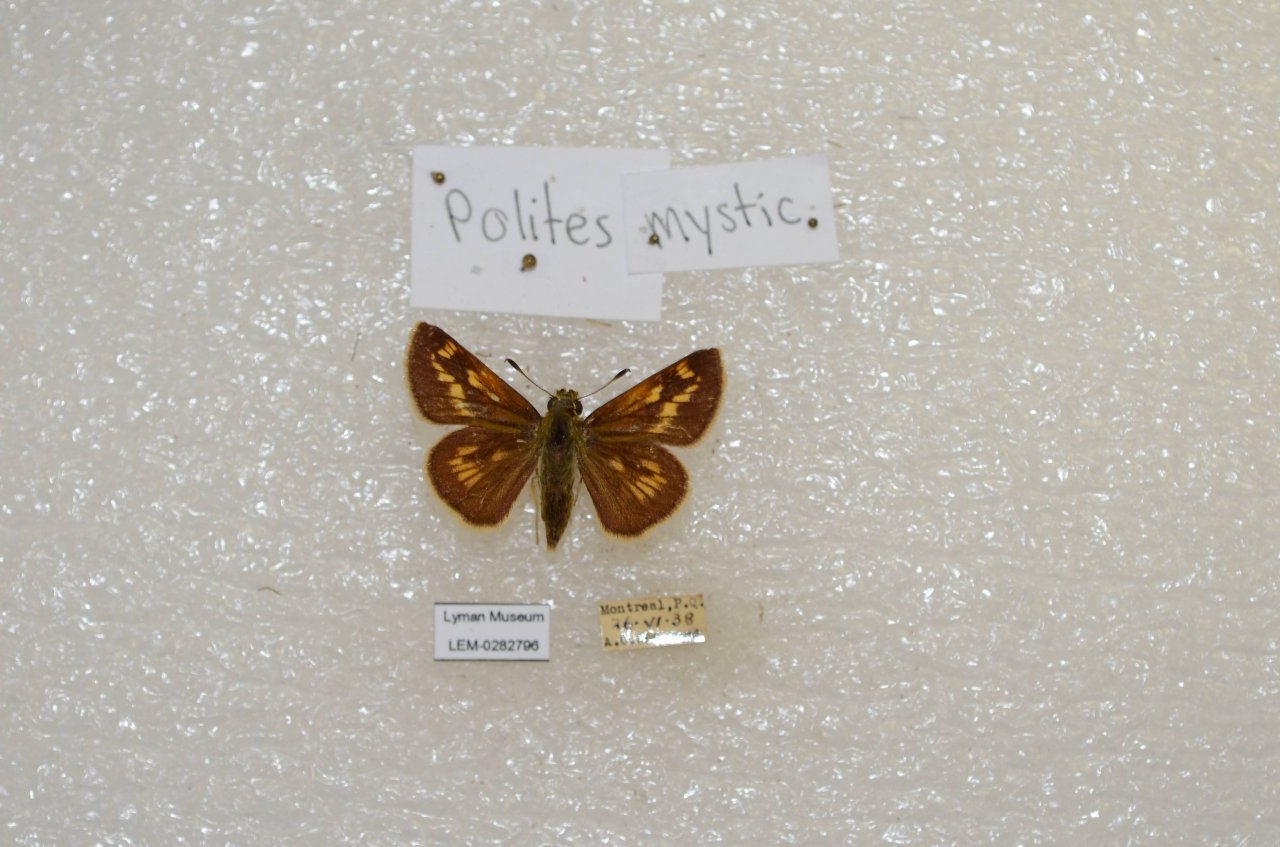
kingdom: Animalia
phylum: Arthropoda
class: Insecta
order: Lepidoptera
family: Hesperiidae
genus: Polites
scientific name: Polites
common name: Long Dash Skipper
